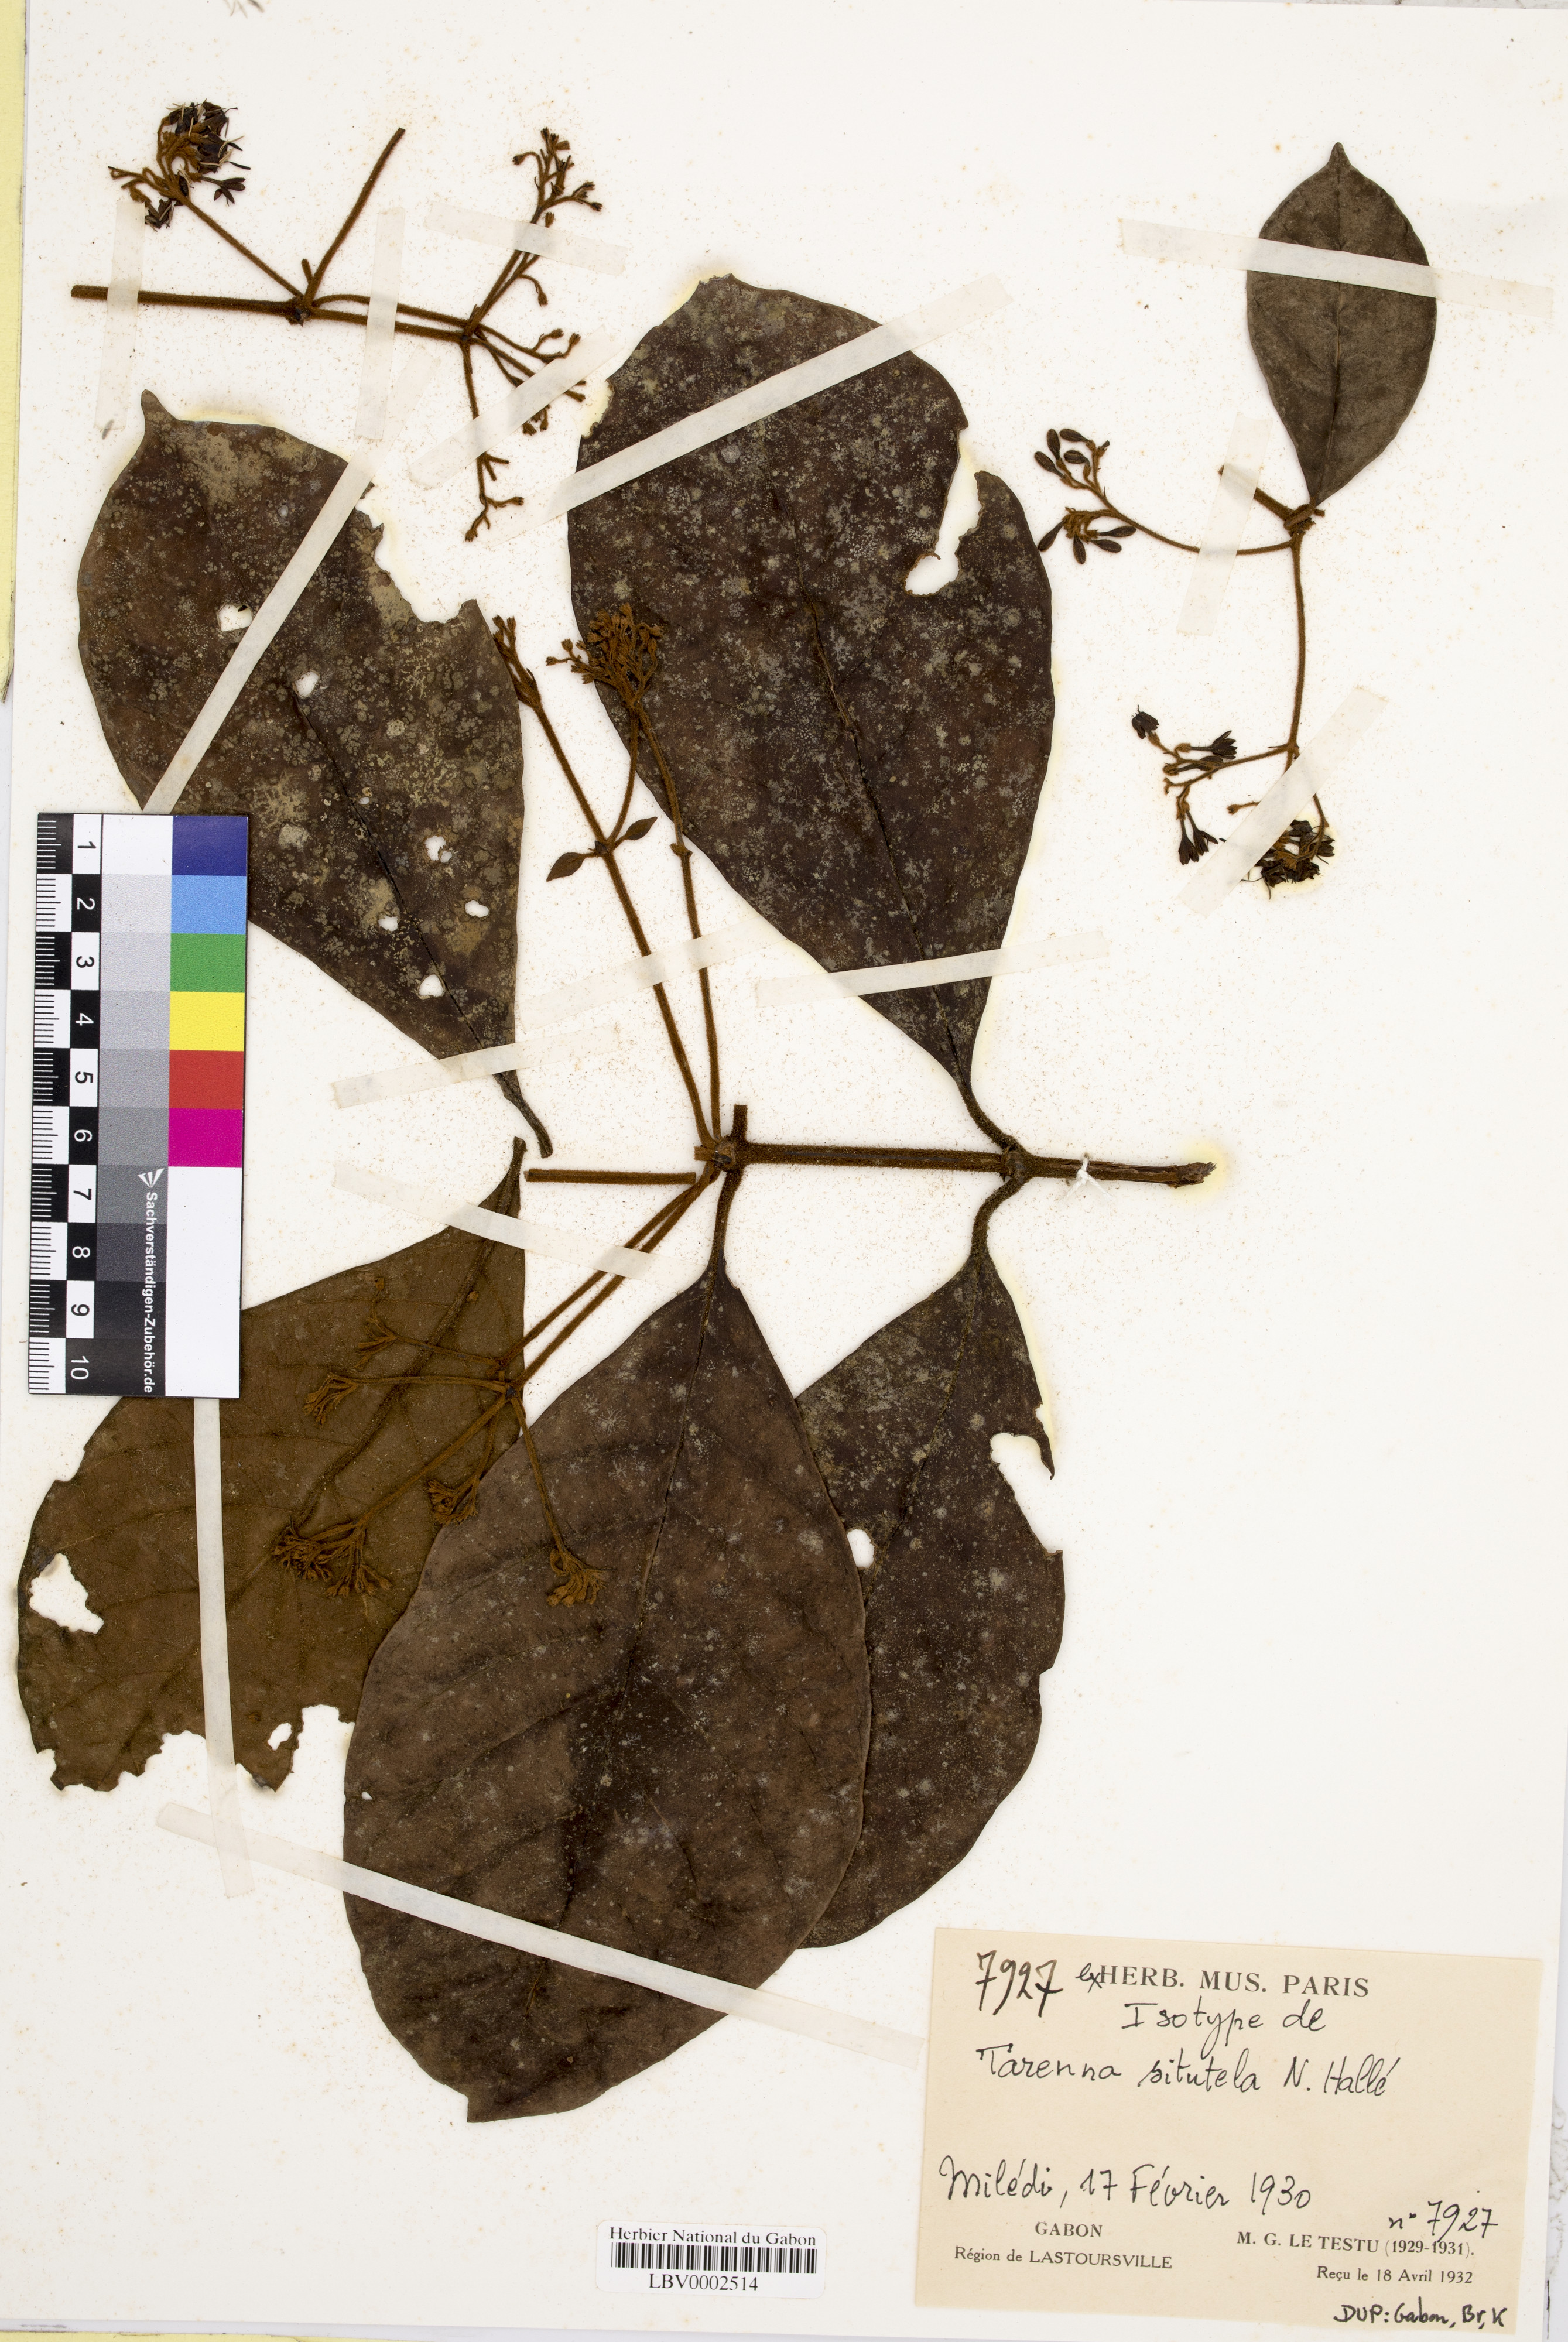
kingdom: Plantae
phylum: Tracheophyta
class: Magnoliopsida
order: Gentianales
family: Rubiaceae
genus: Tarenna
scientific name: Tarenna eketensis
